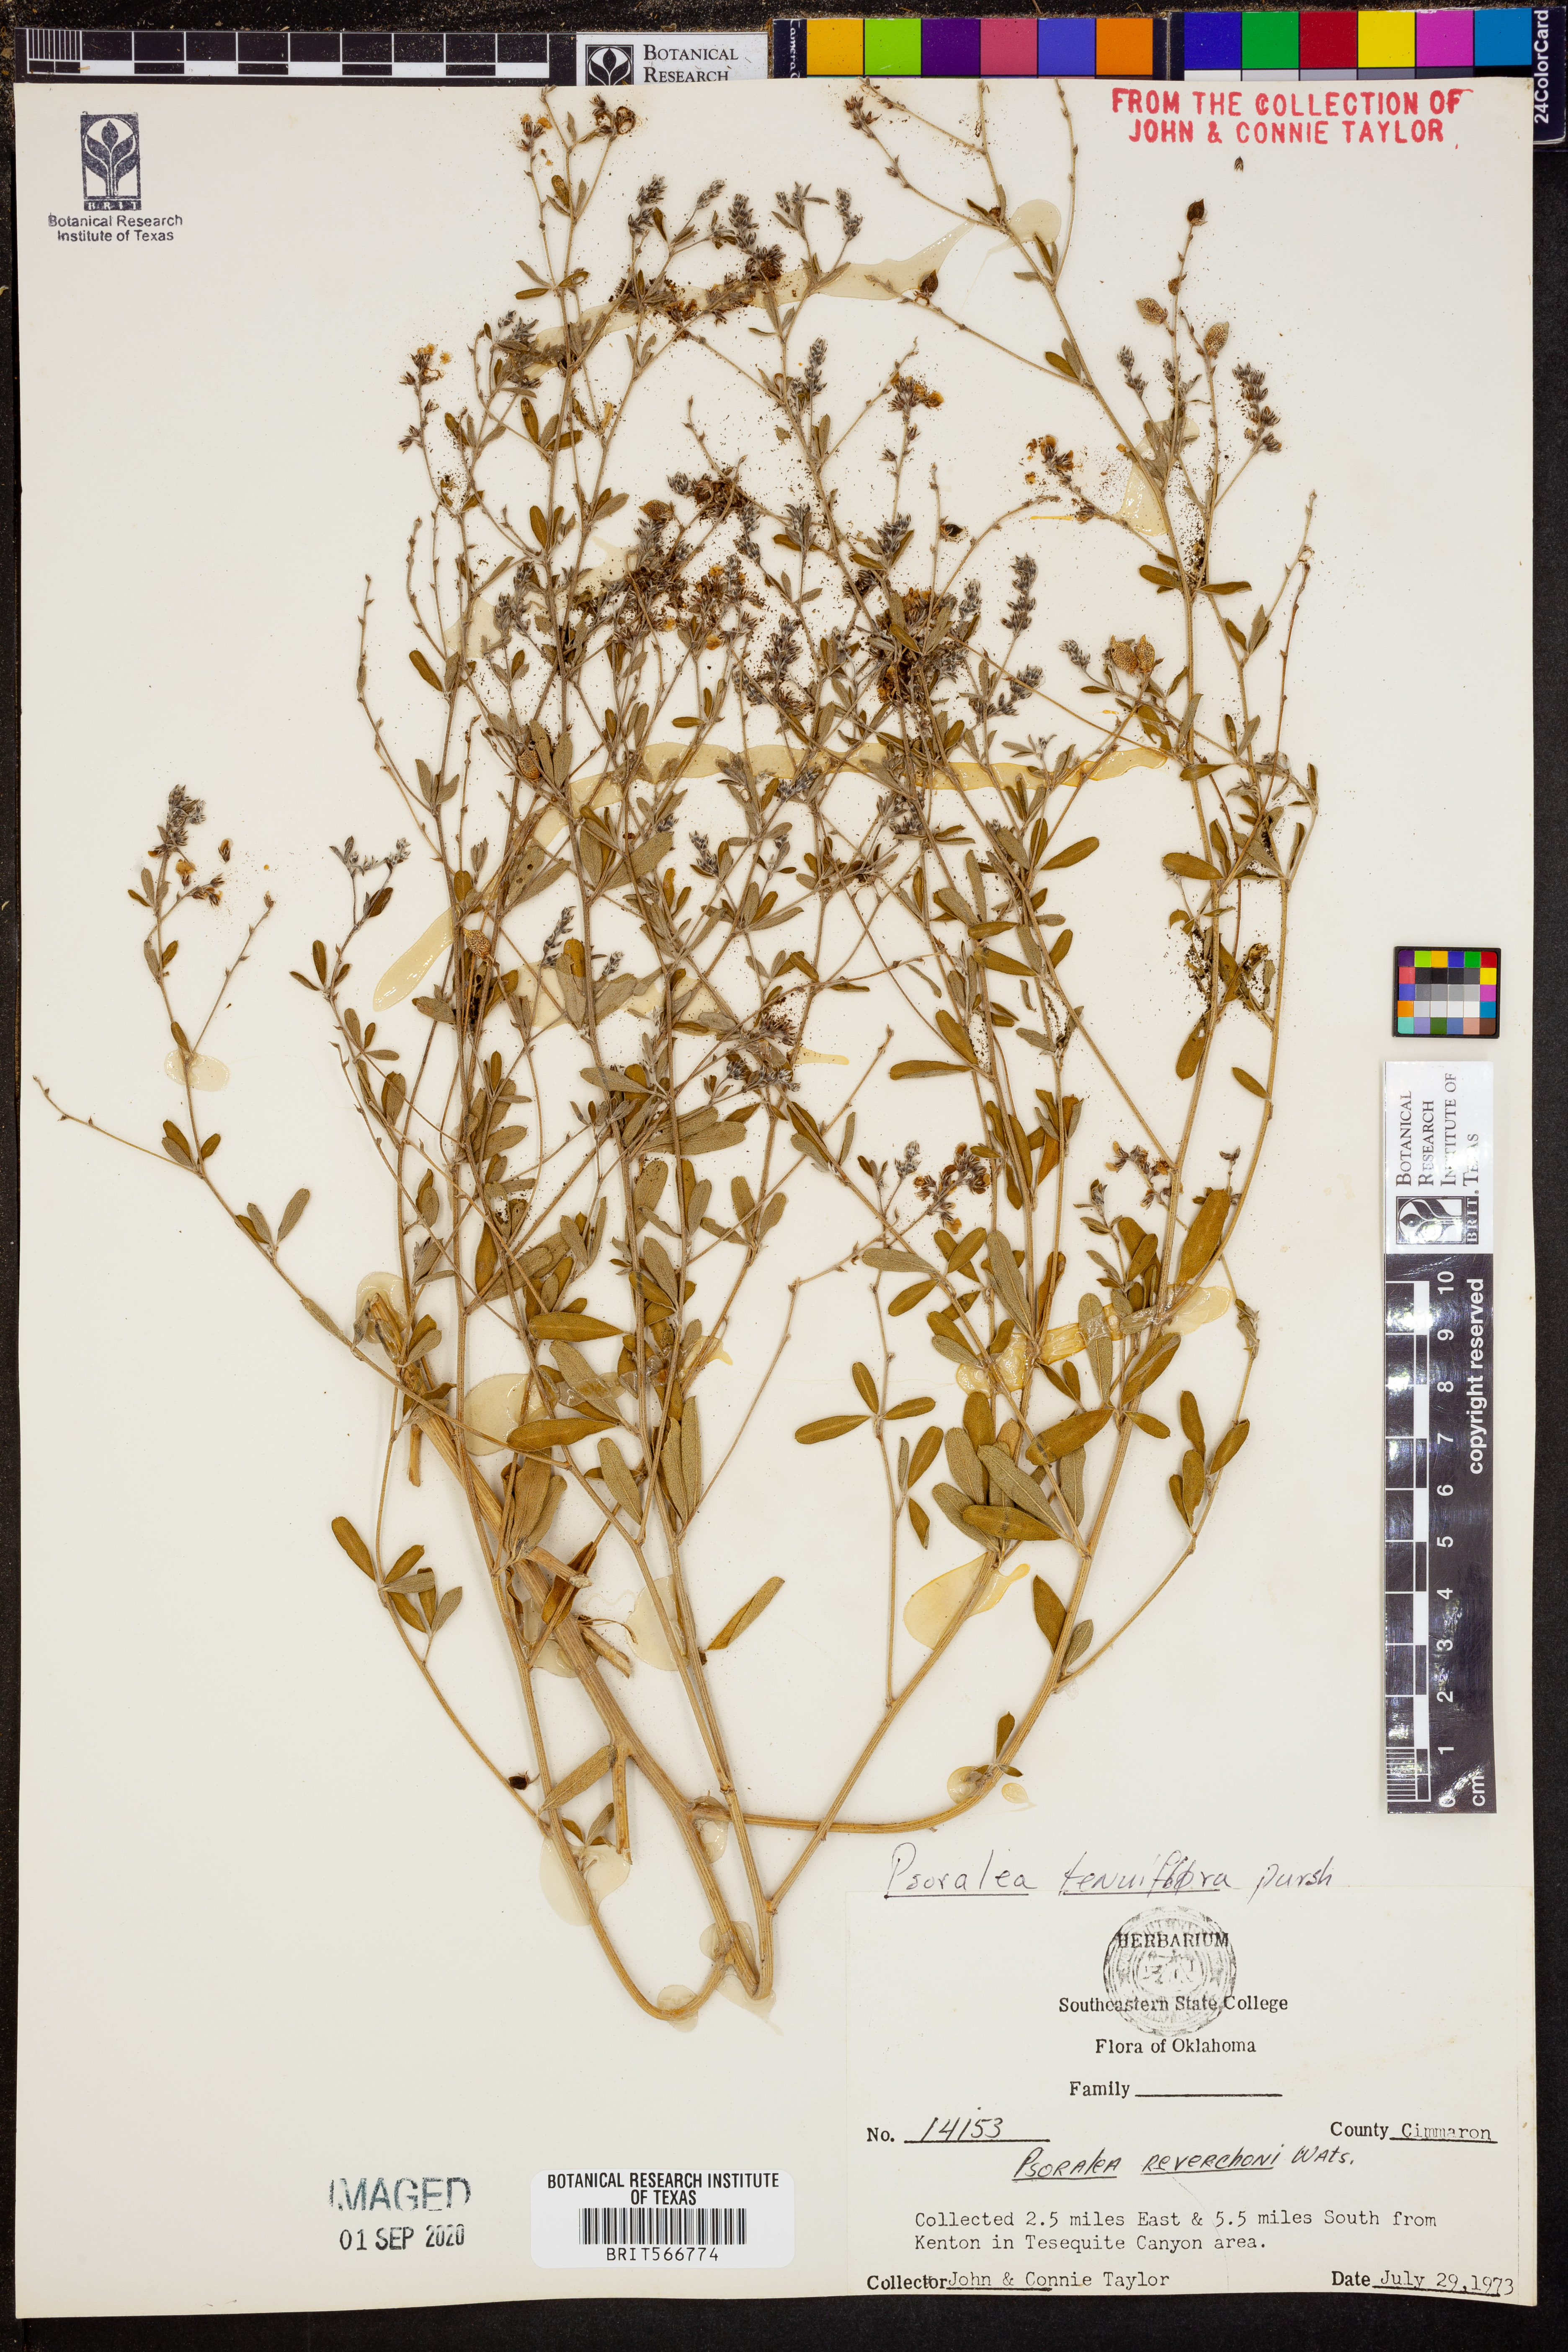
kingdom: Plantae
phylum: Tracheophyta
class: Magnoliopsida
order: Fabales
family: Fabaceae
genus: Pediomelum
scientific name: Pediomelum tenuiflorum
